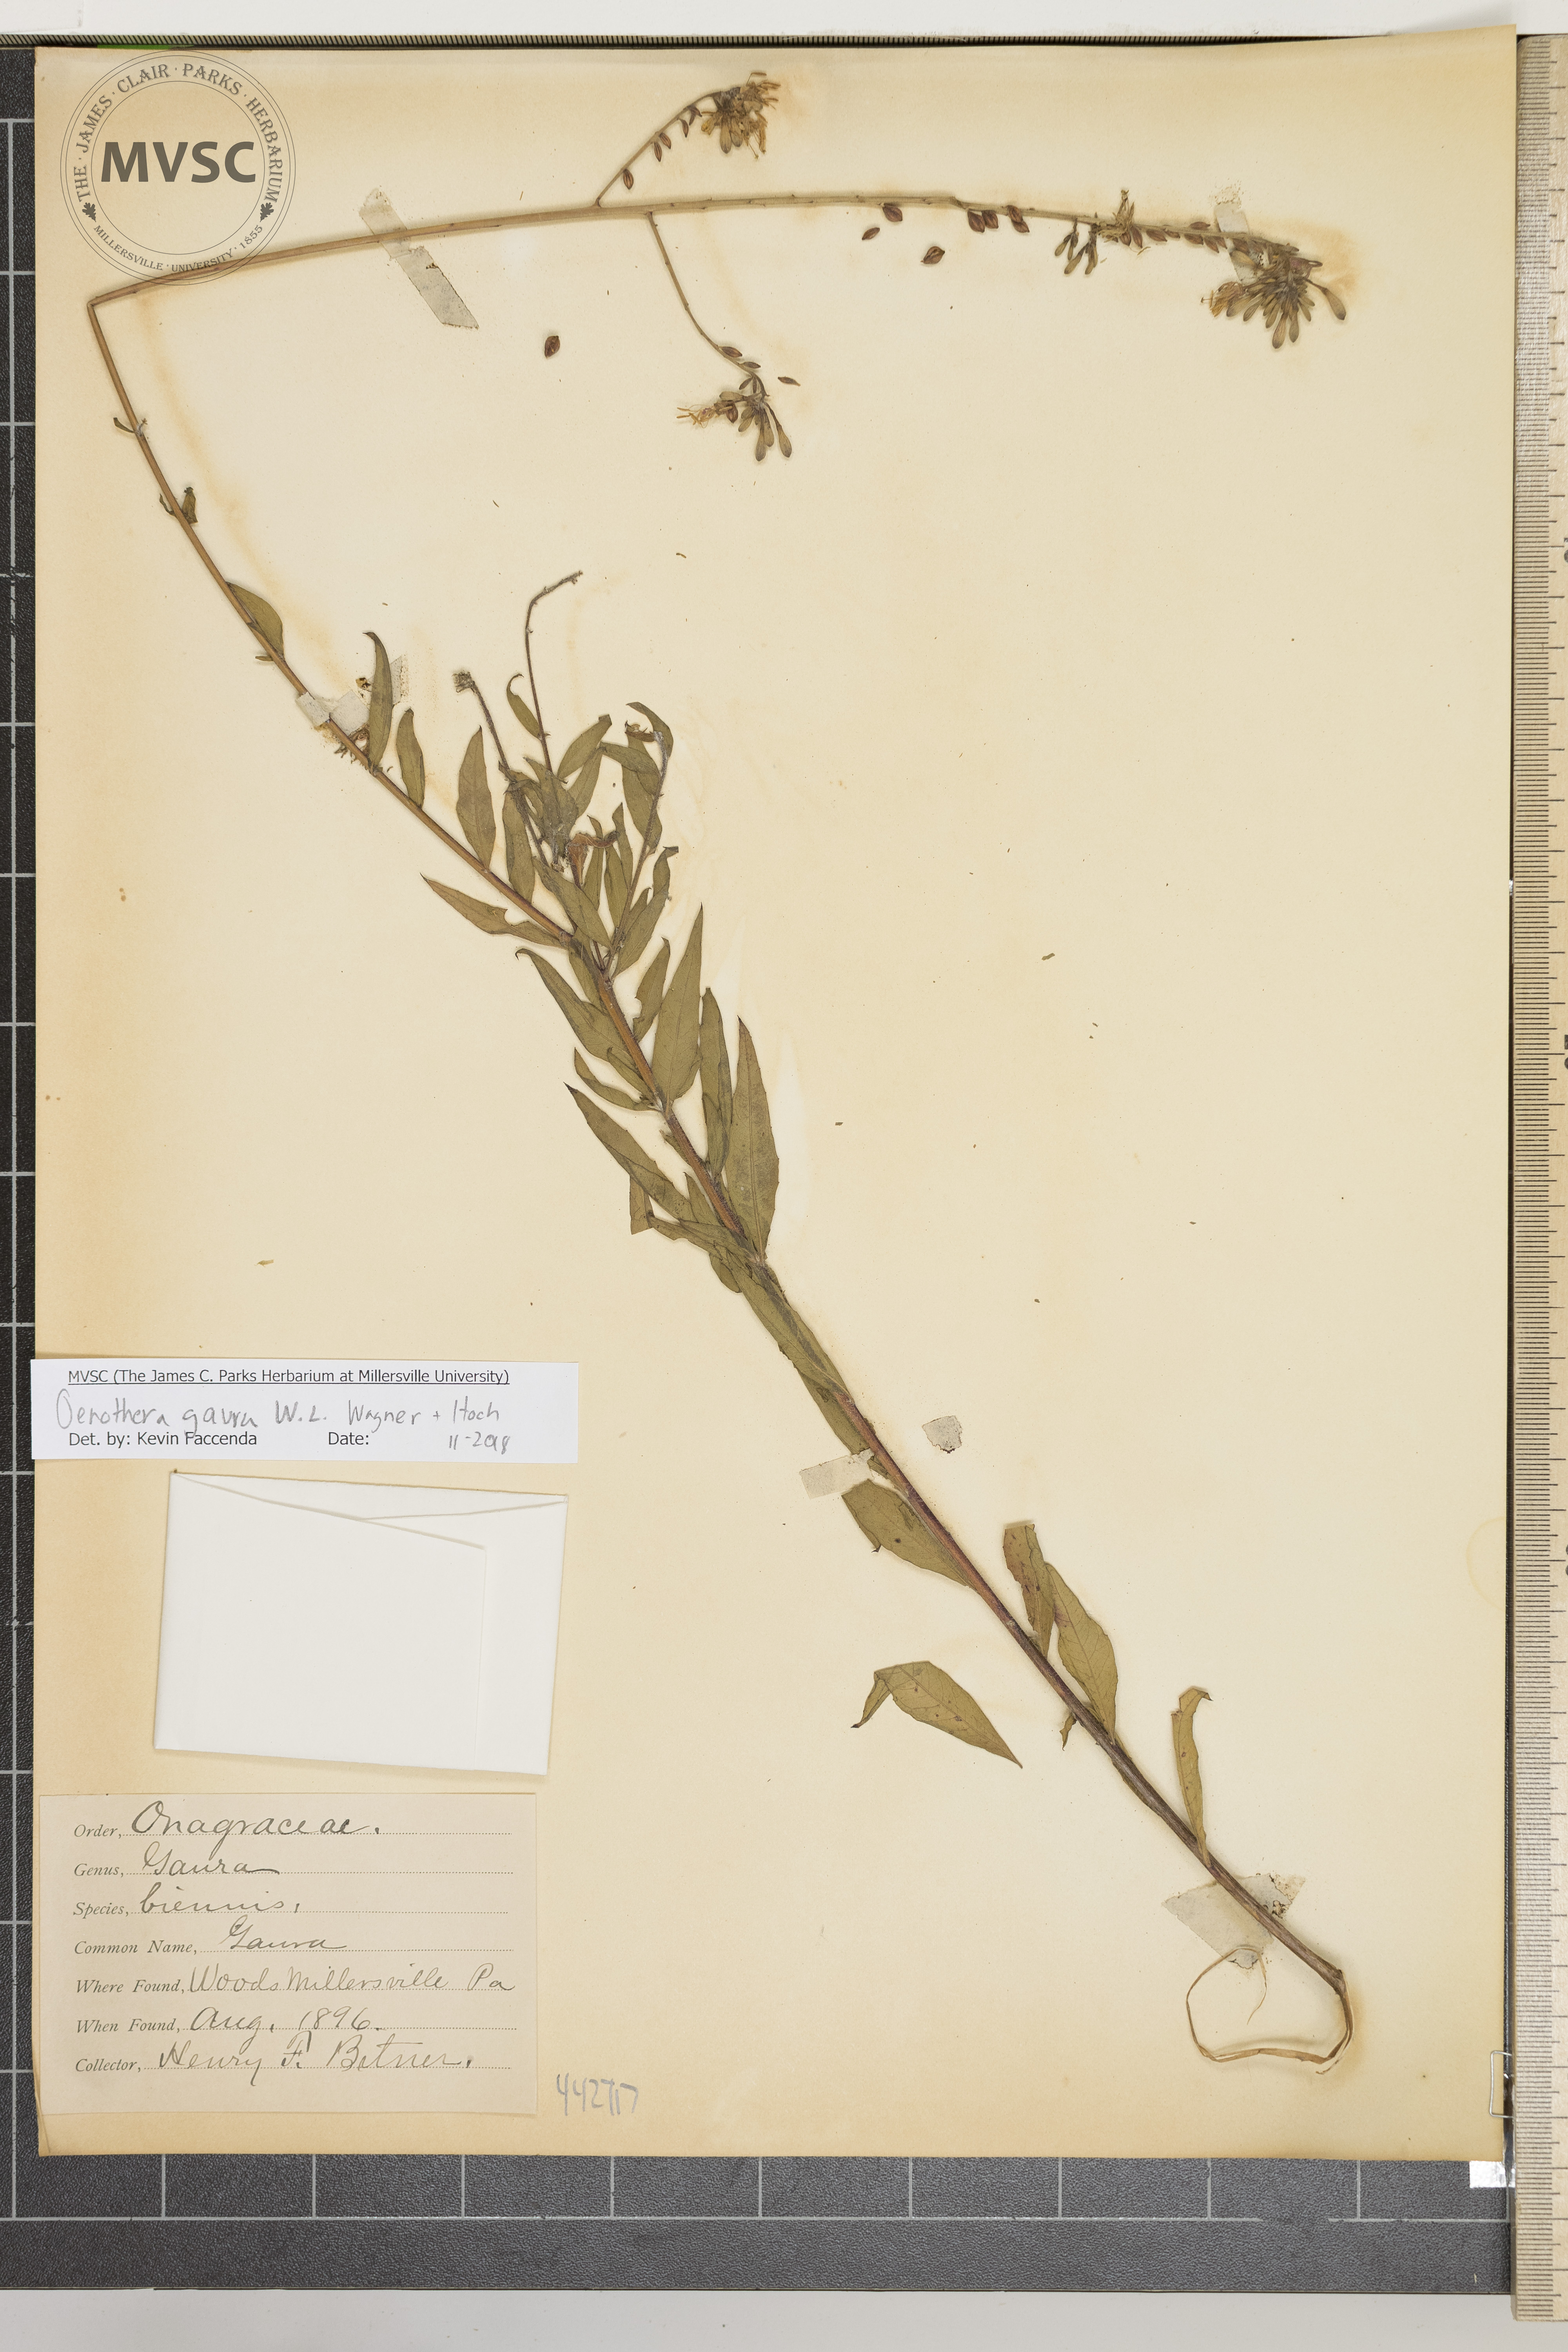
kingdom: Plantae
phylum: Tracheophyta
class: Magnoliopsida
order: Myrtales
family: Onagraceae
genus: Oenothera
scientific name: Oenothera gaura
